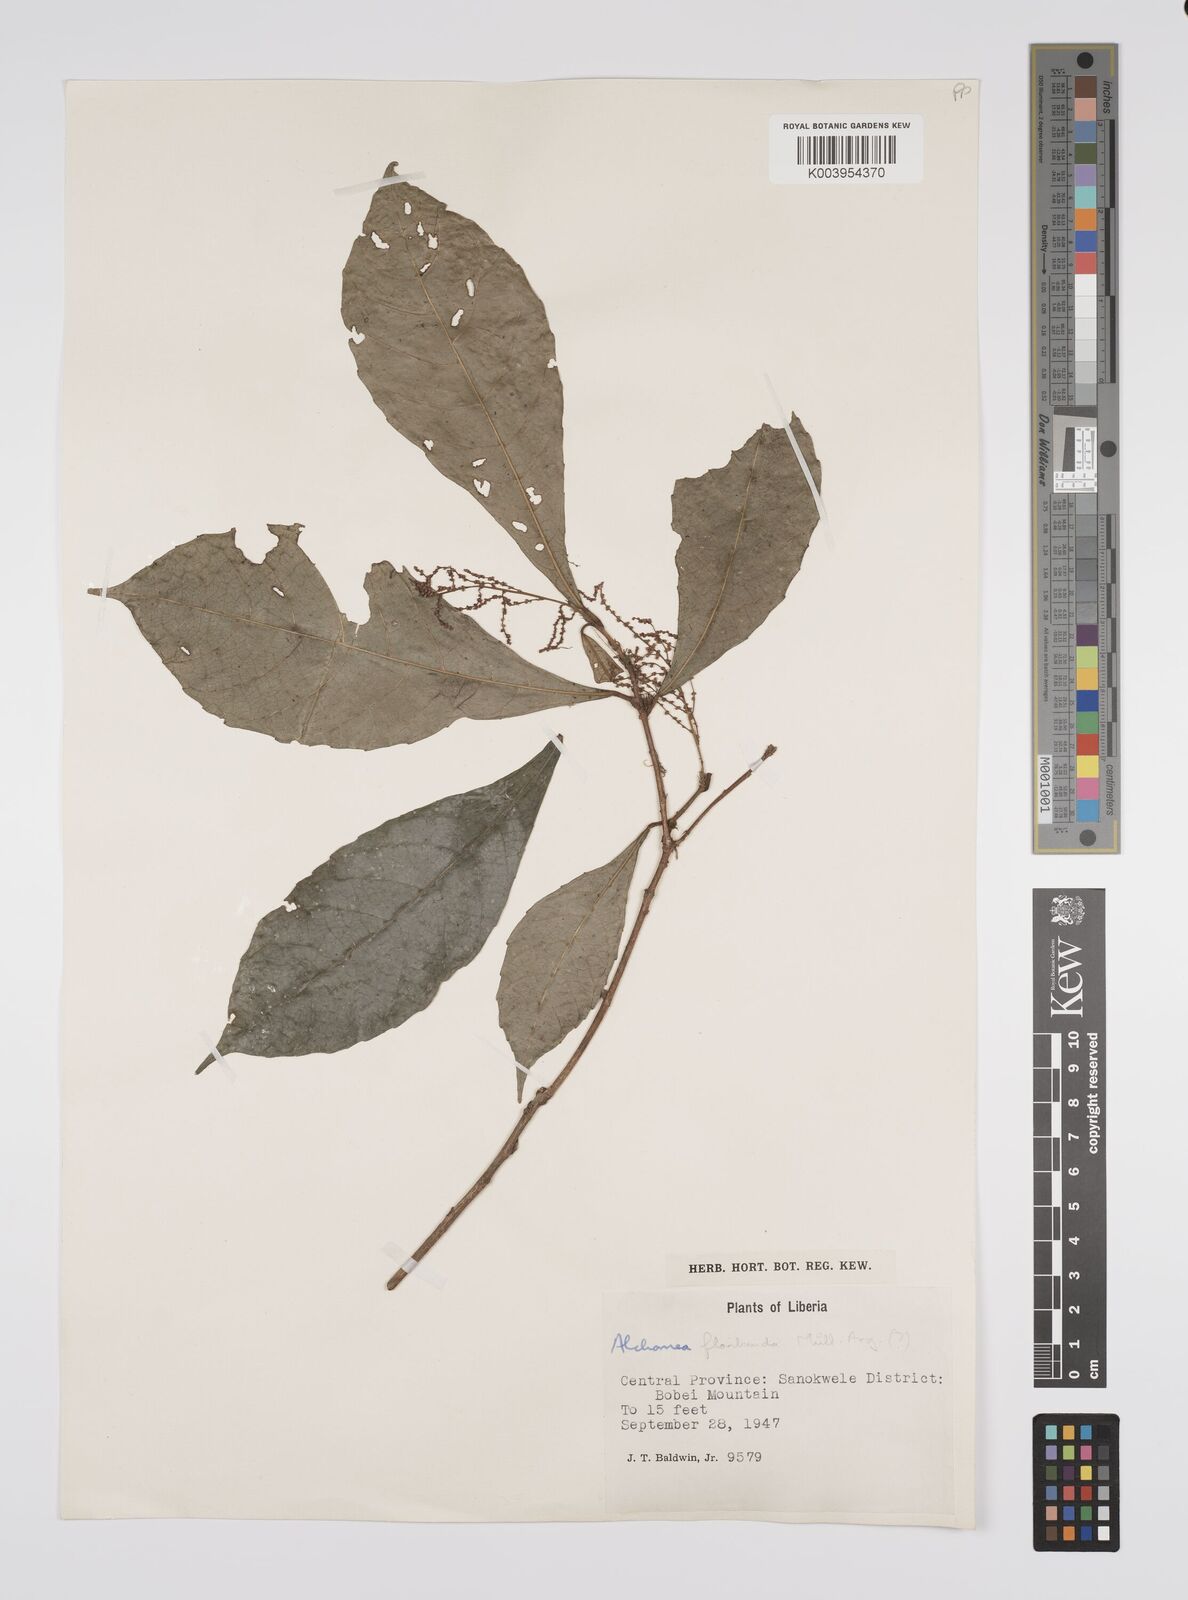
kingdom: Plantae
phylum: Tracheophyta
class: Magnoliopsida
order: Malpighiales
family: Euphorbiaceae
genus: Alchornea
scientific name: Alchornea floribunda
